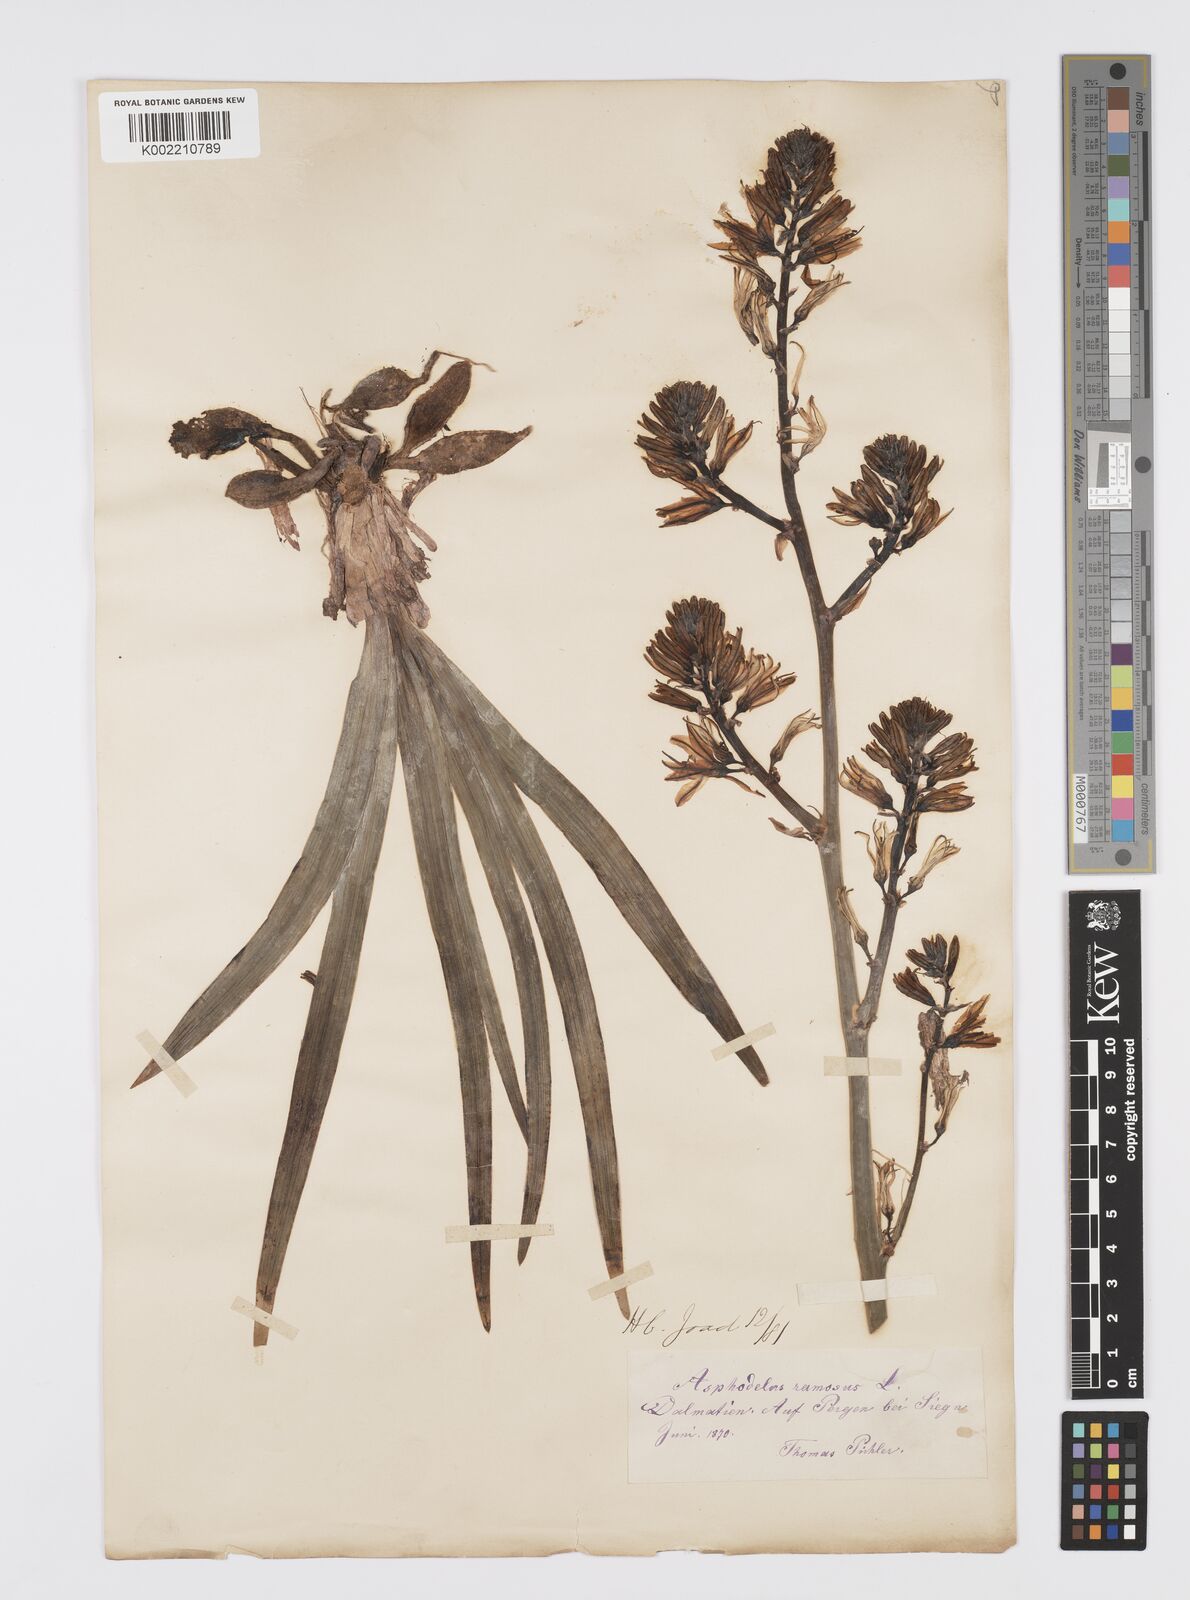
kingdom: Plantae
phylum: Tracheophyta
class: Liliopsida
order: Asparagales
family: Asphodelaceae
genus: Asphodelus
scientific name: Asphodelus cerasifer
